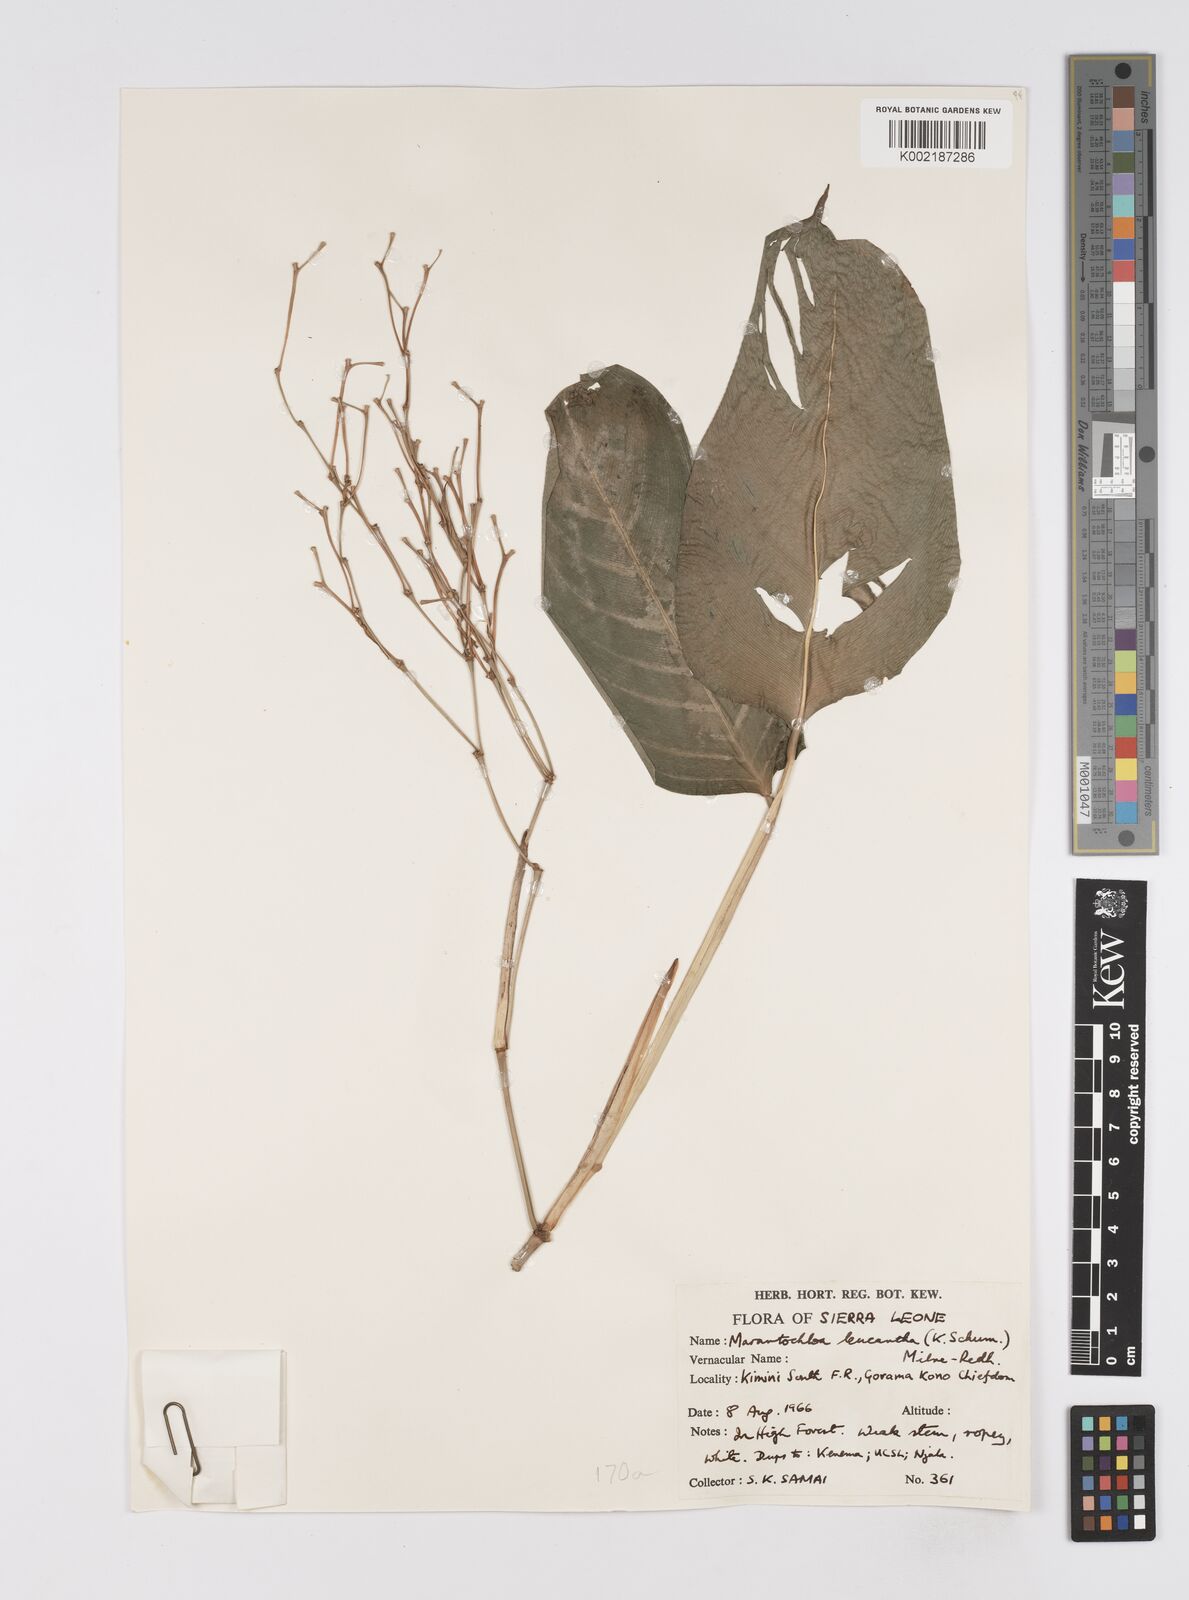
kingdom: Plantae
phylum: Tracheophyta
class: Liliopsida
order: Zingiberales
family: Marantaceae
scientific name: Marantaceae
